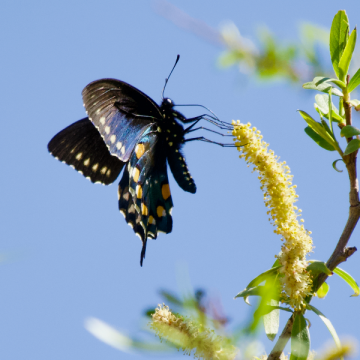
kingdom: Animalia
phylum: Arthropoda
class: Insecta
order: Lepidoptera
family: Papilionidae
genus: Battus
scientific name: Battus philenor
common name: Pipevine Swallowtail
